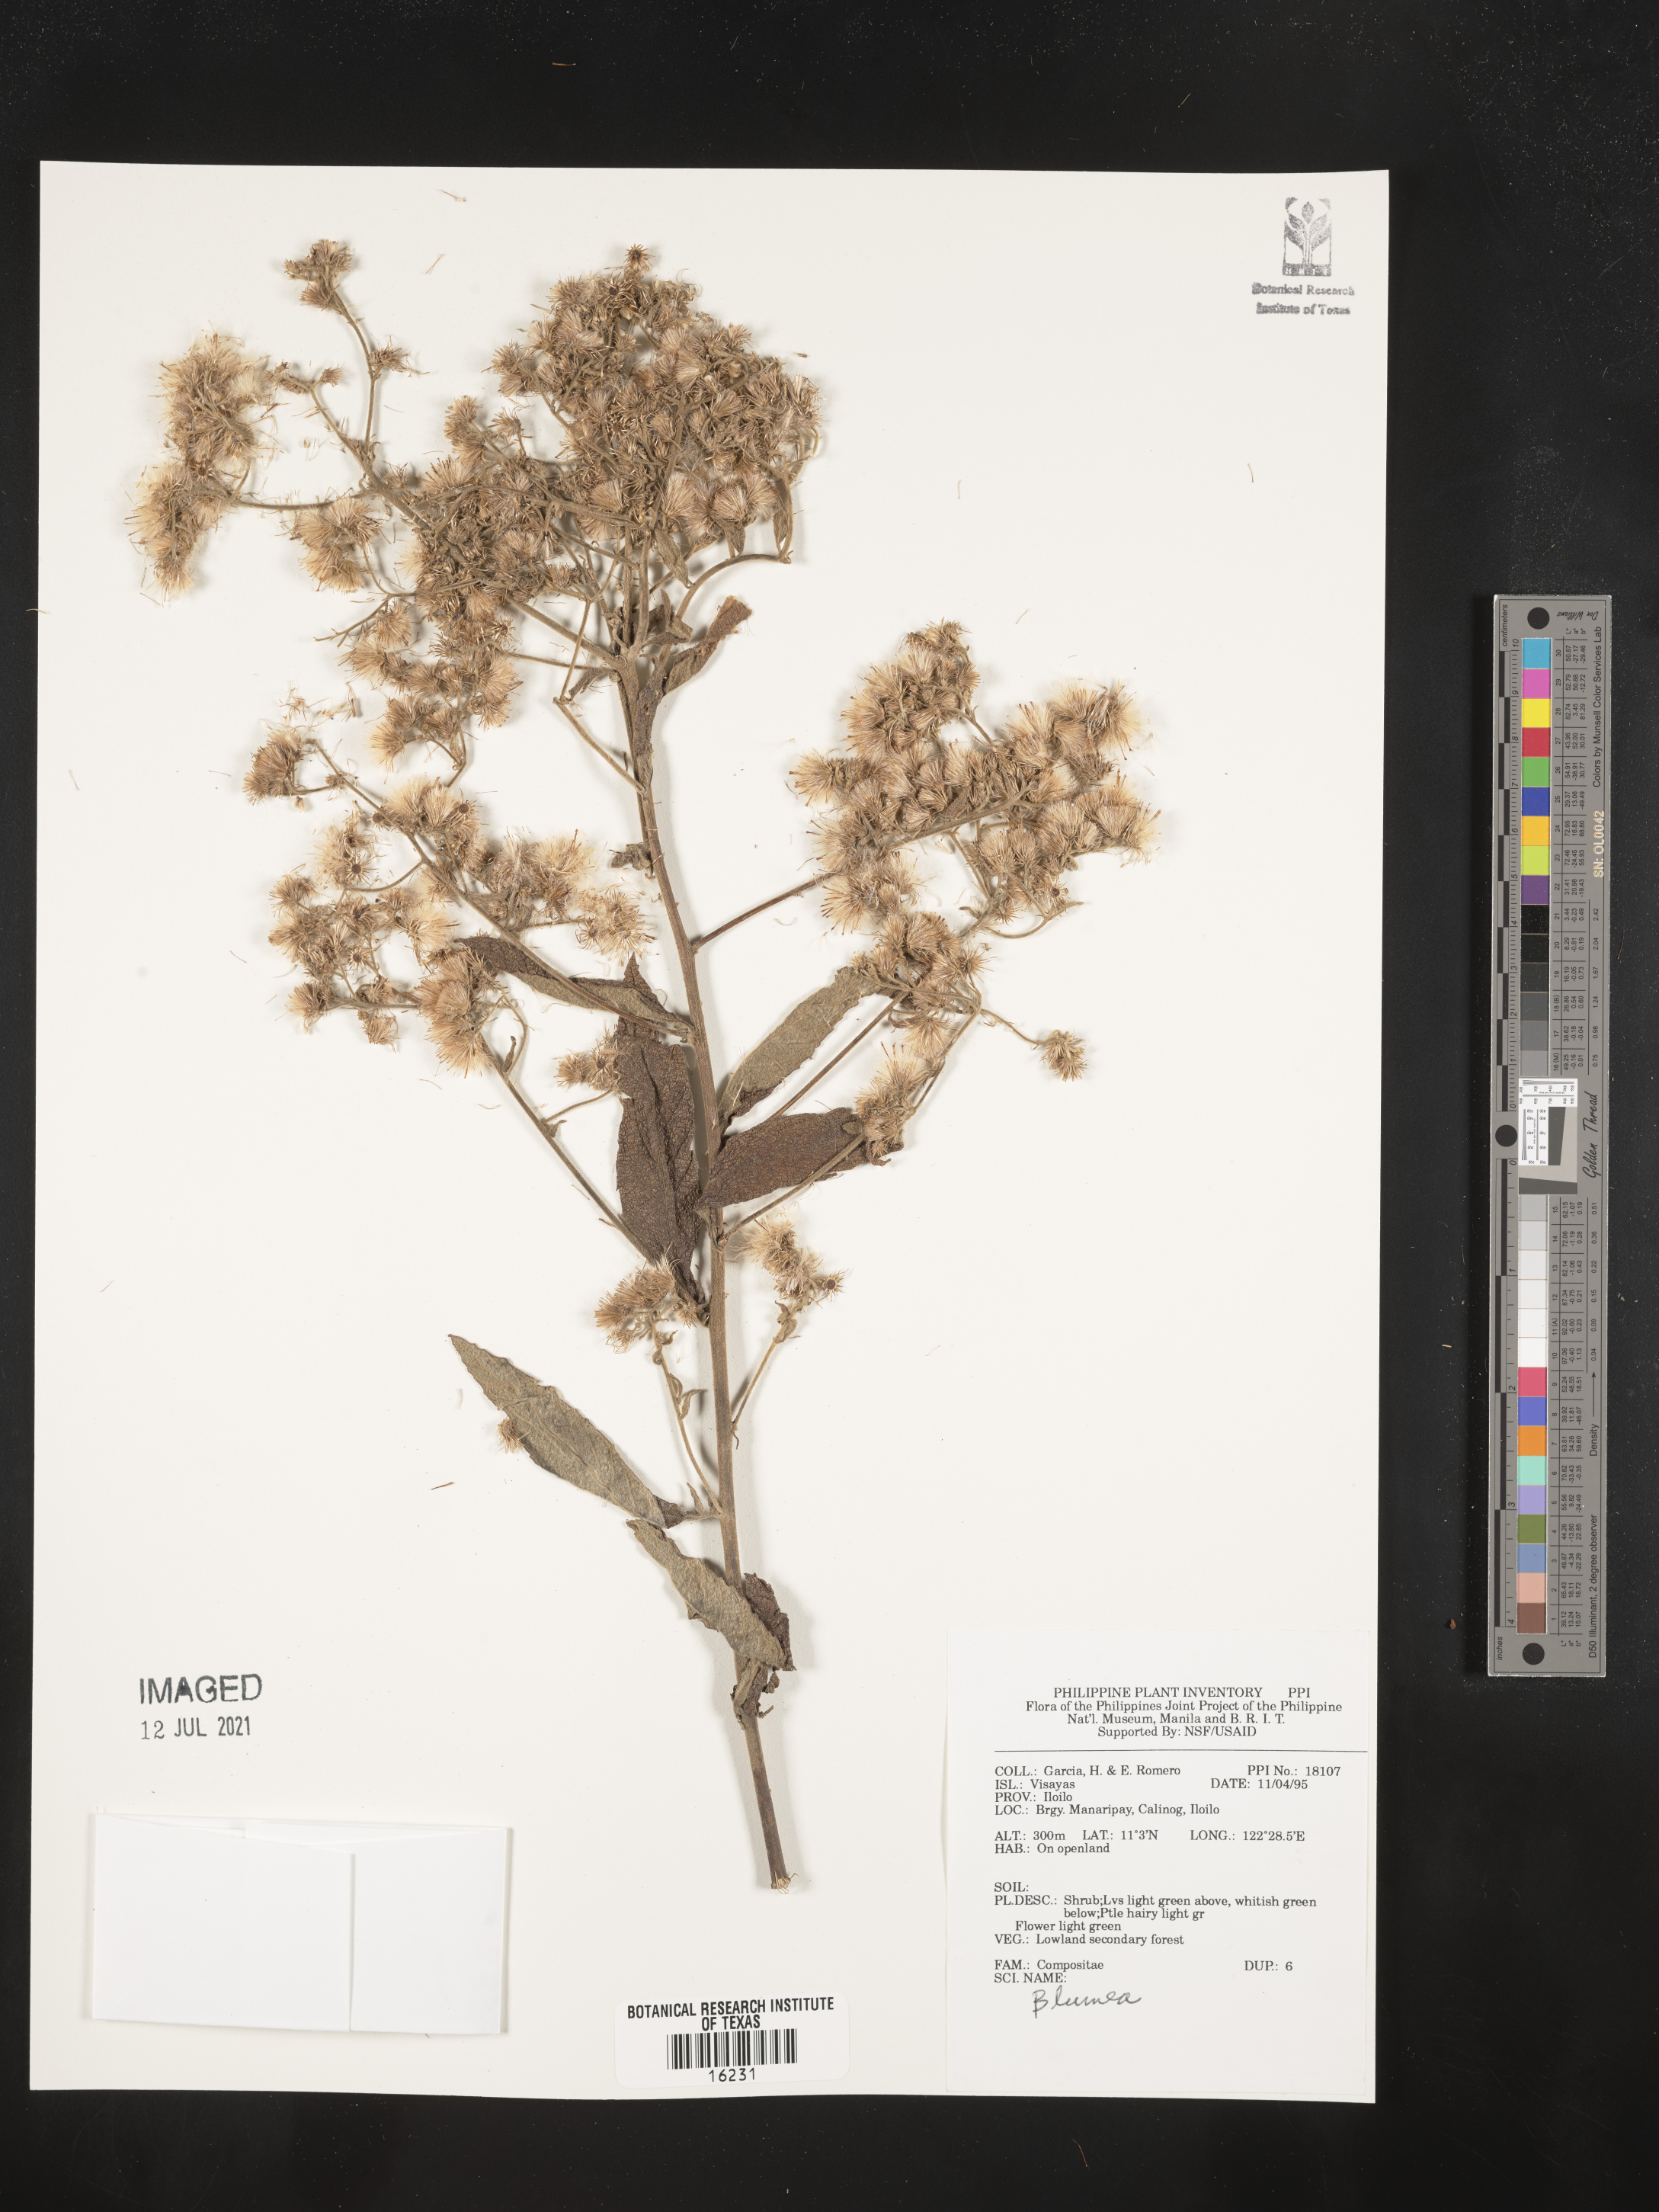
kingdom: Plantae
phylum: Tracheophyta
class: Magnoliopsida
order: Asterales
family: Asteraceae
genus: Blumea
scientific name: Blumea
